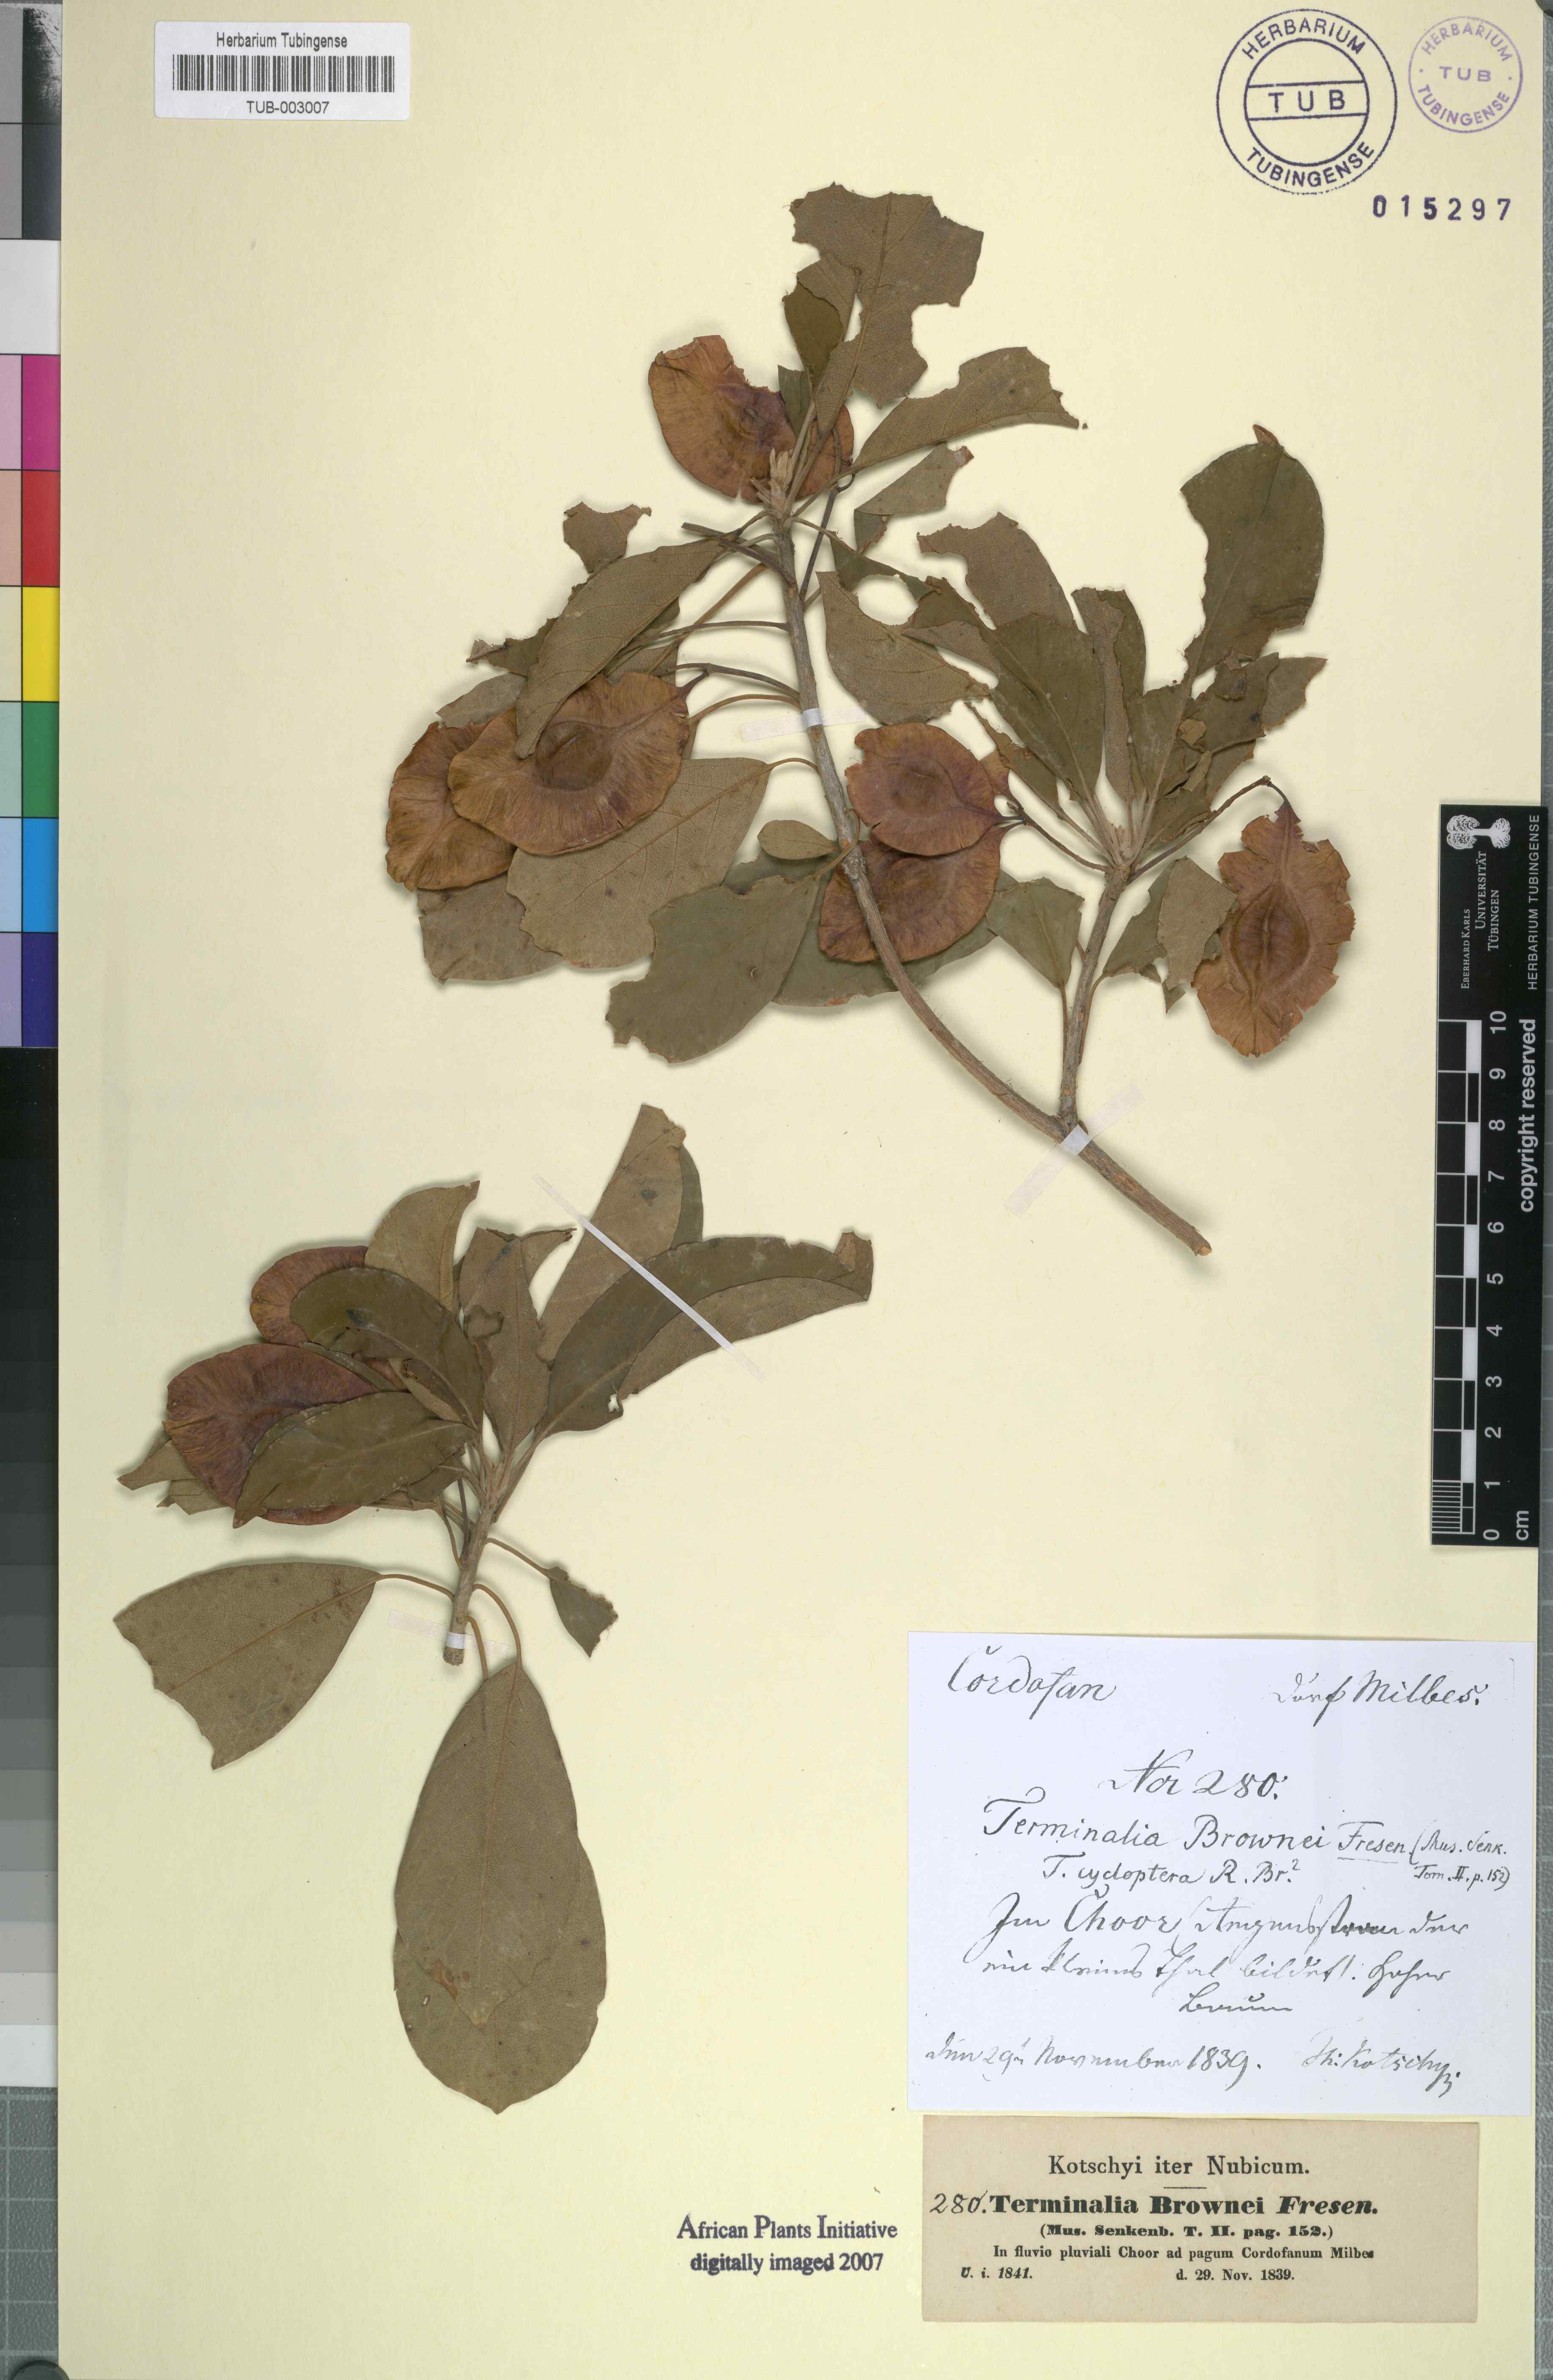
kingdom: Plantae
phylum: Tracheophyta
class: Magnoliopsida
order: Myrtales
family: Combretaceae
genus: Terminalia
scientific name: Terminalia brownii
